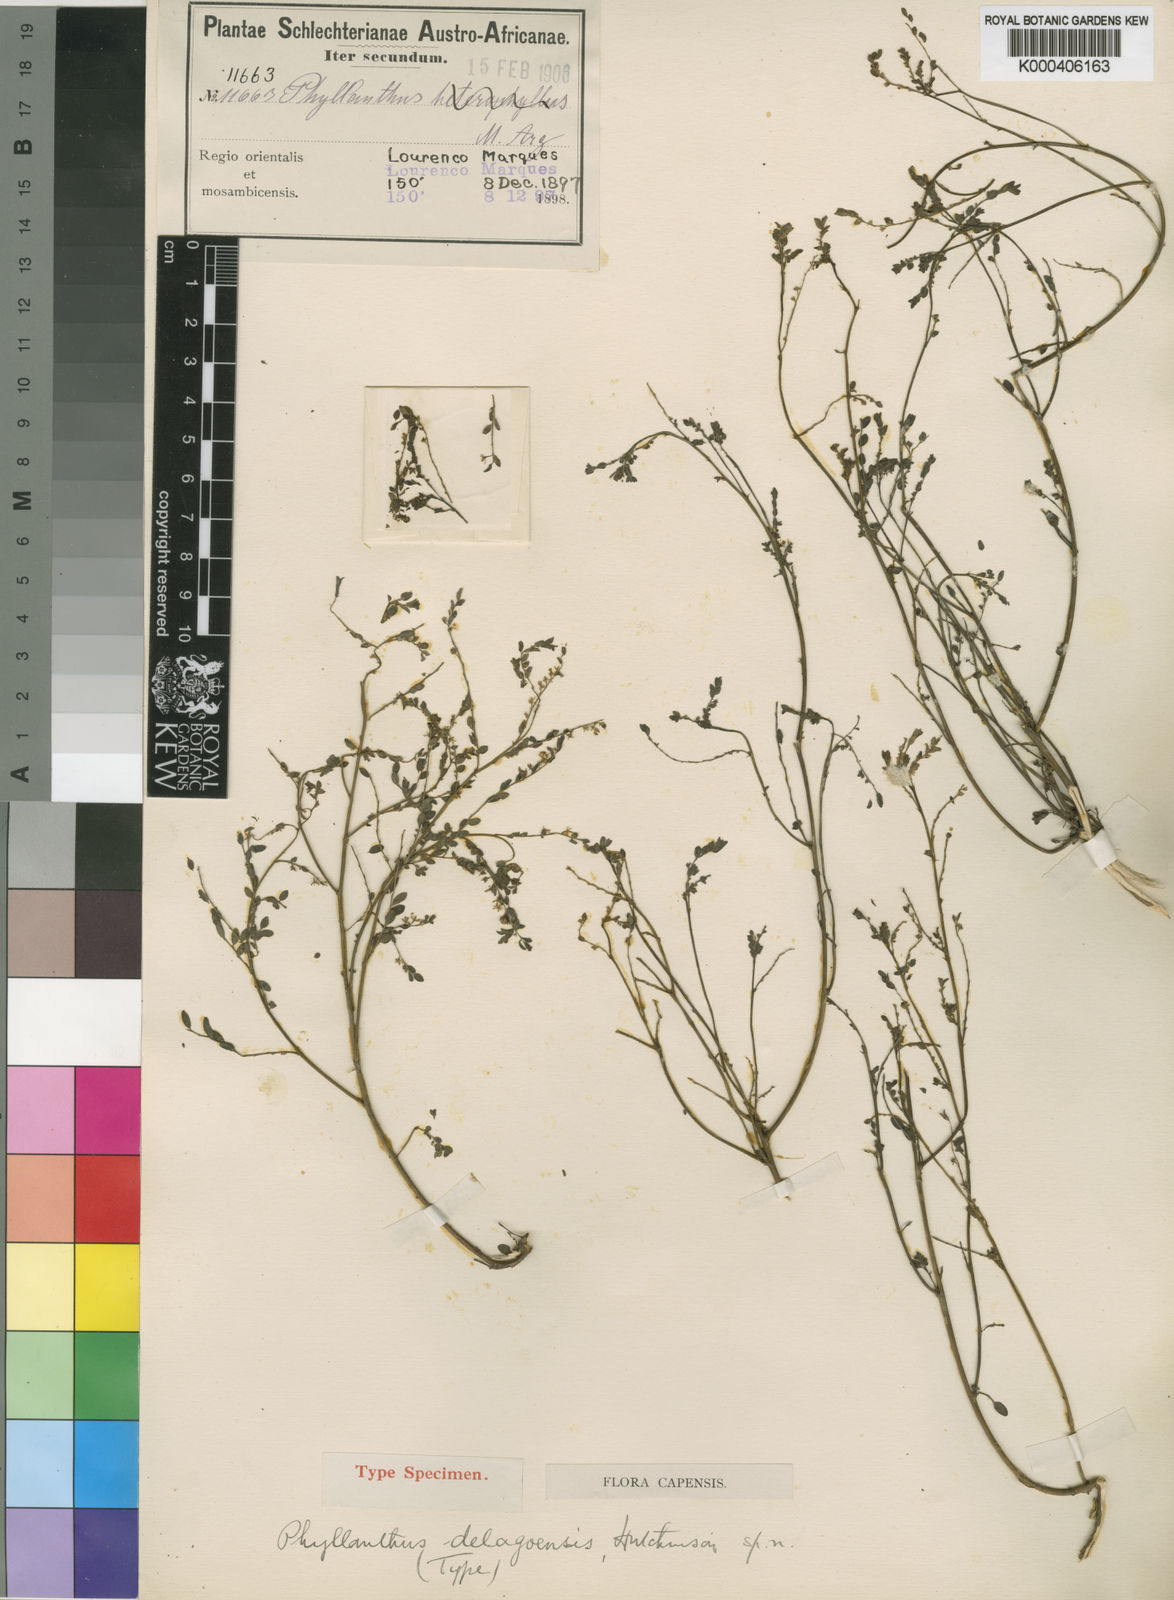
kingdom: Plantae
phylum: Tracheophyta
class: Magnoliopsida
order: Malpighiales
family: Phyllanthaceae
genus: Phyllanthus
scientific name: Phyllanthus delagoensis
